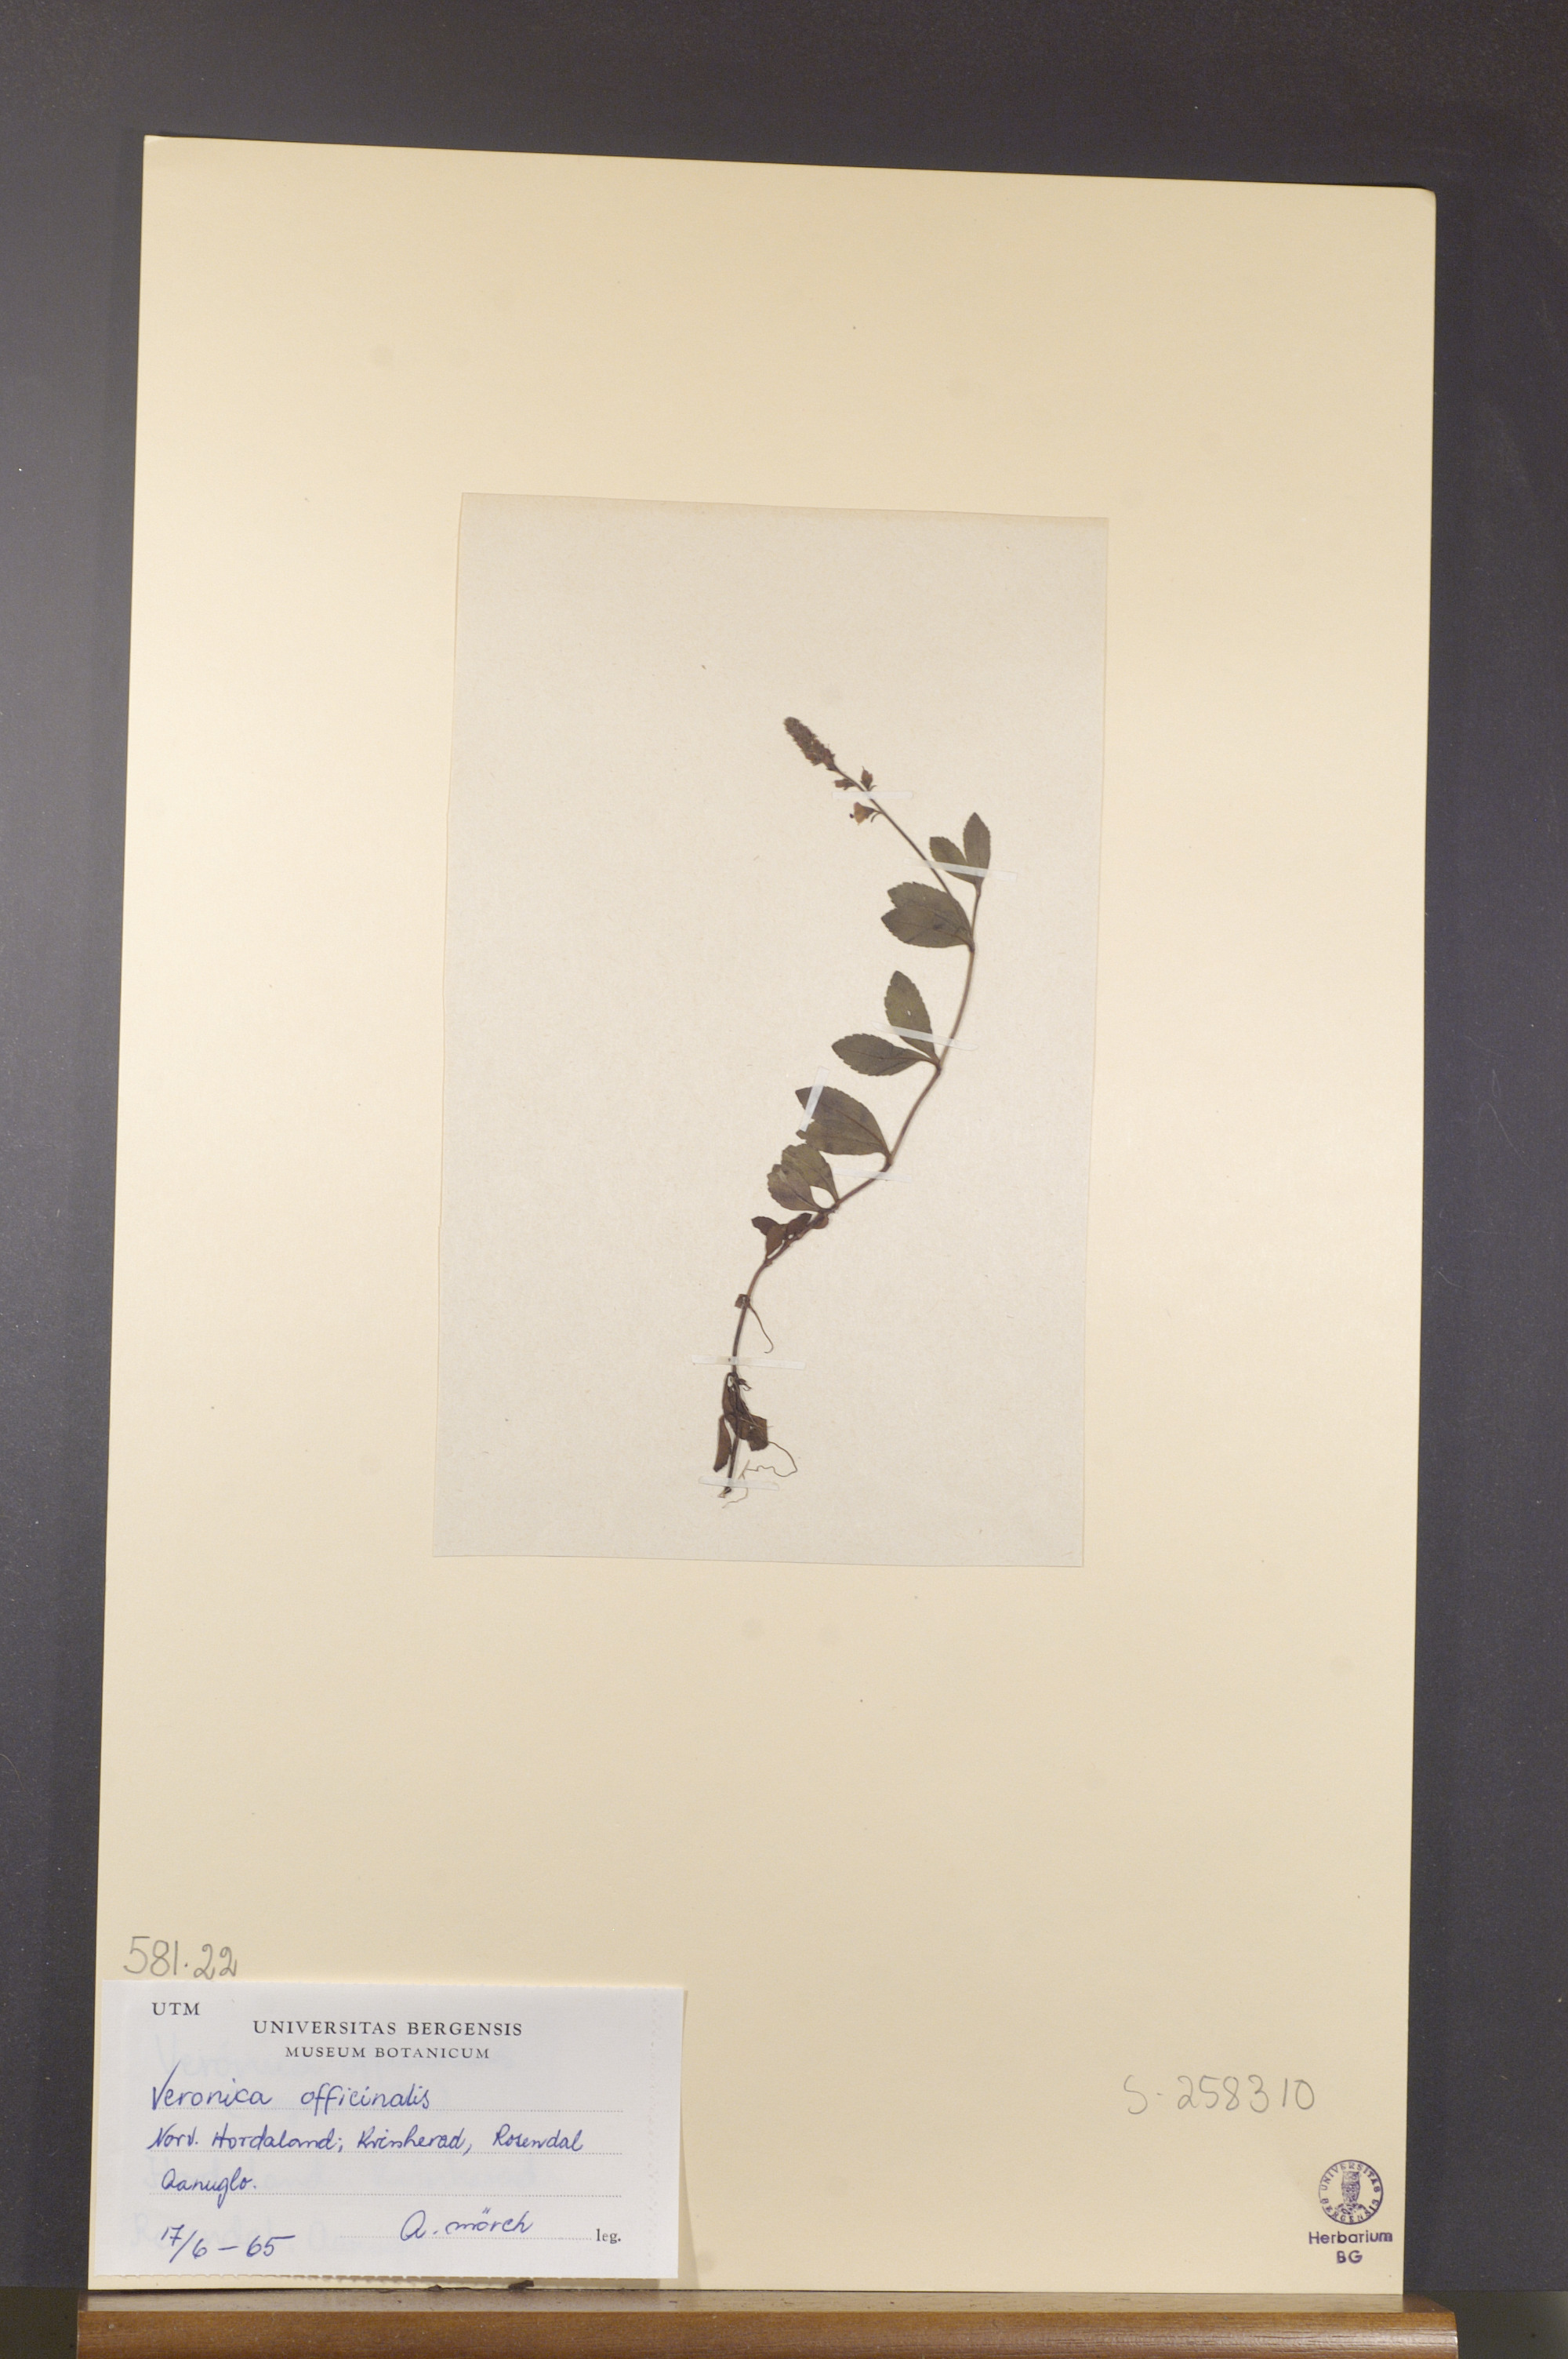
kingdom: Plantae
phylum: Tracheophyta
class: Magnoliopsida
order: Lamiales
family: Plantaginaceae
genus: Veronica
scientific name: Veronica officinalis
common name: Common speedwell
